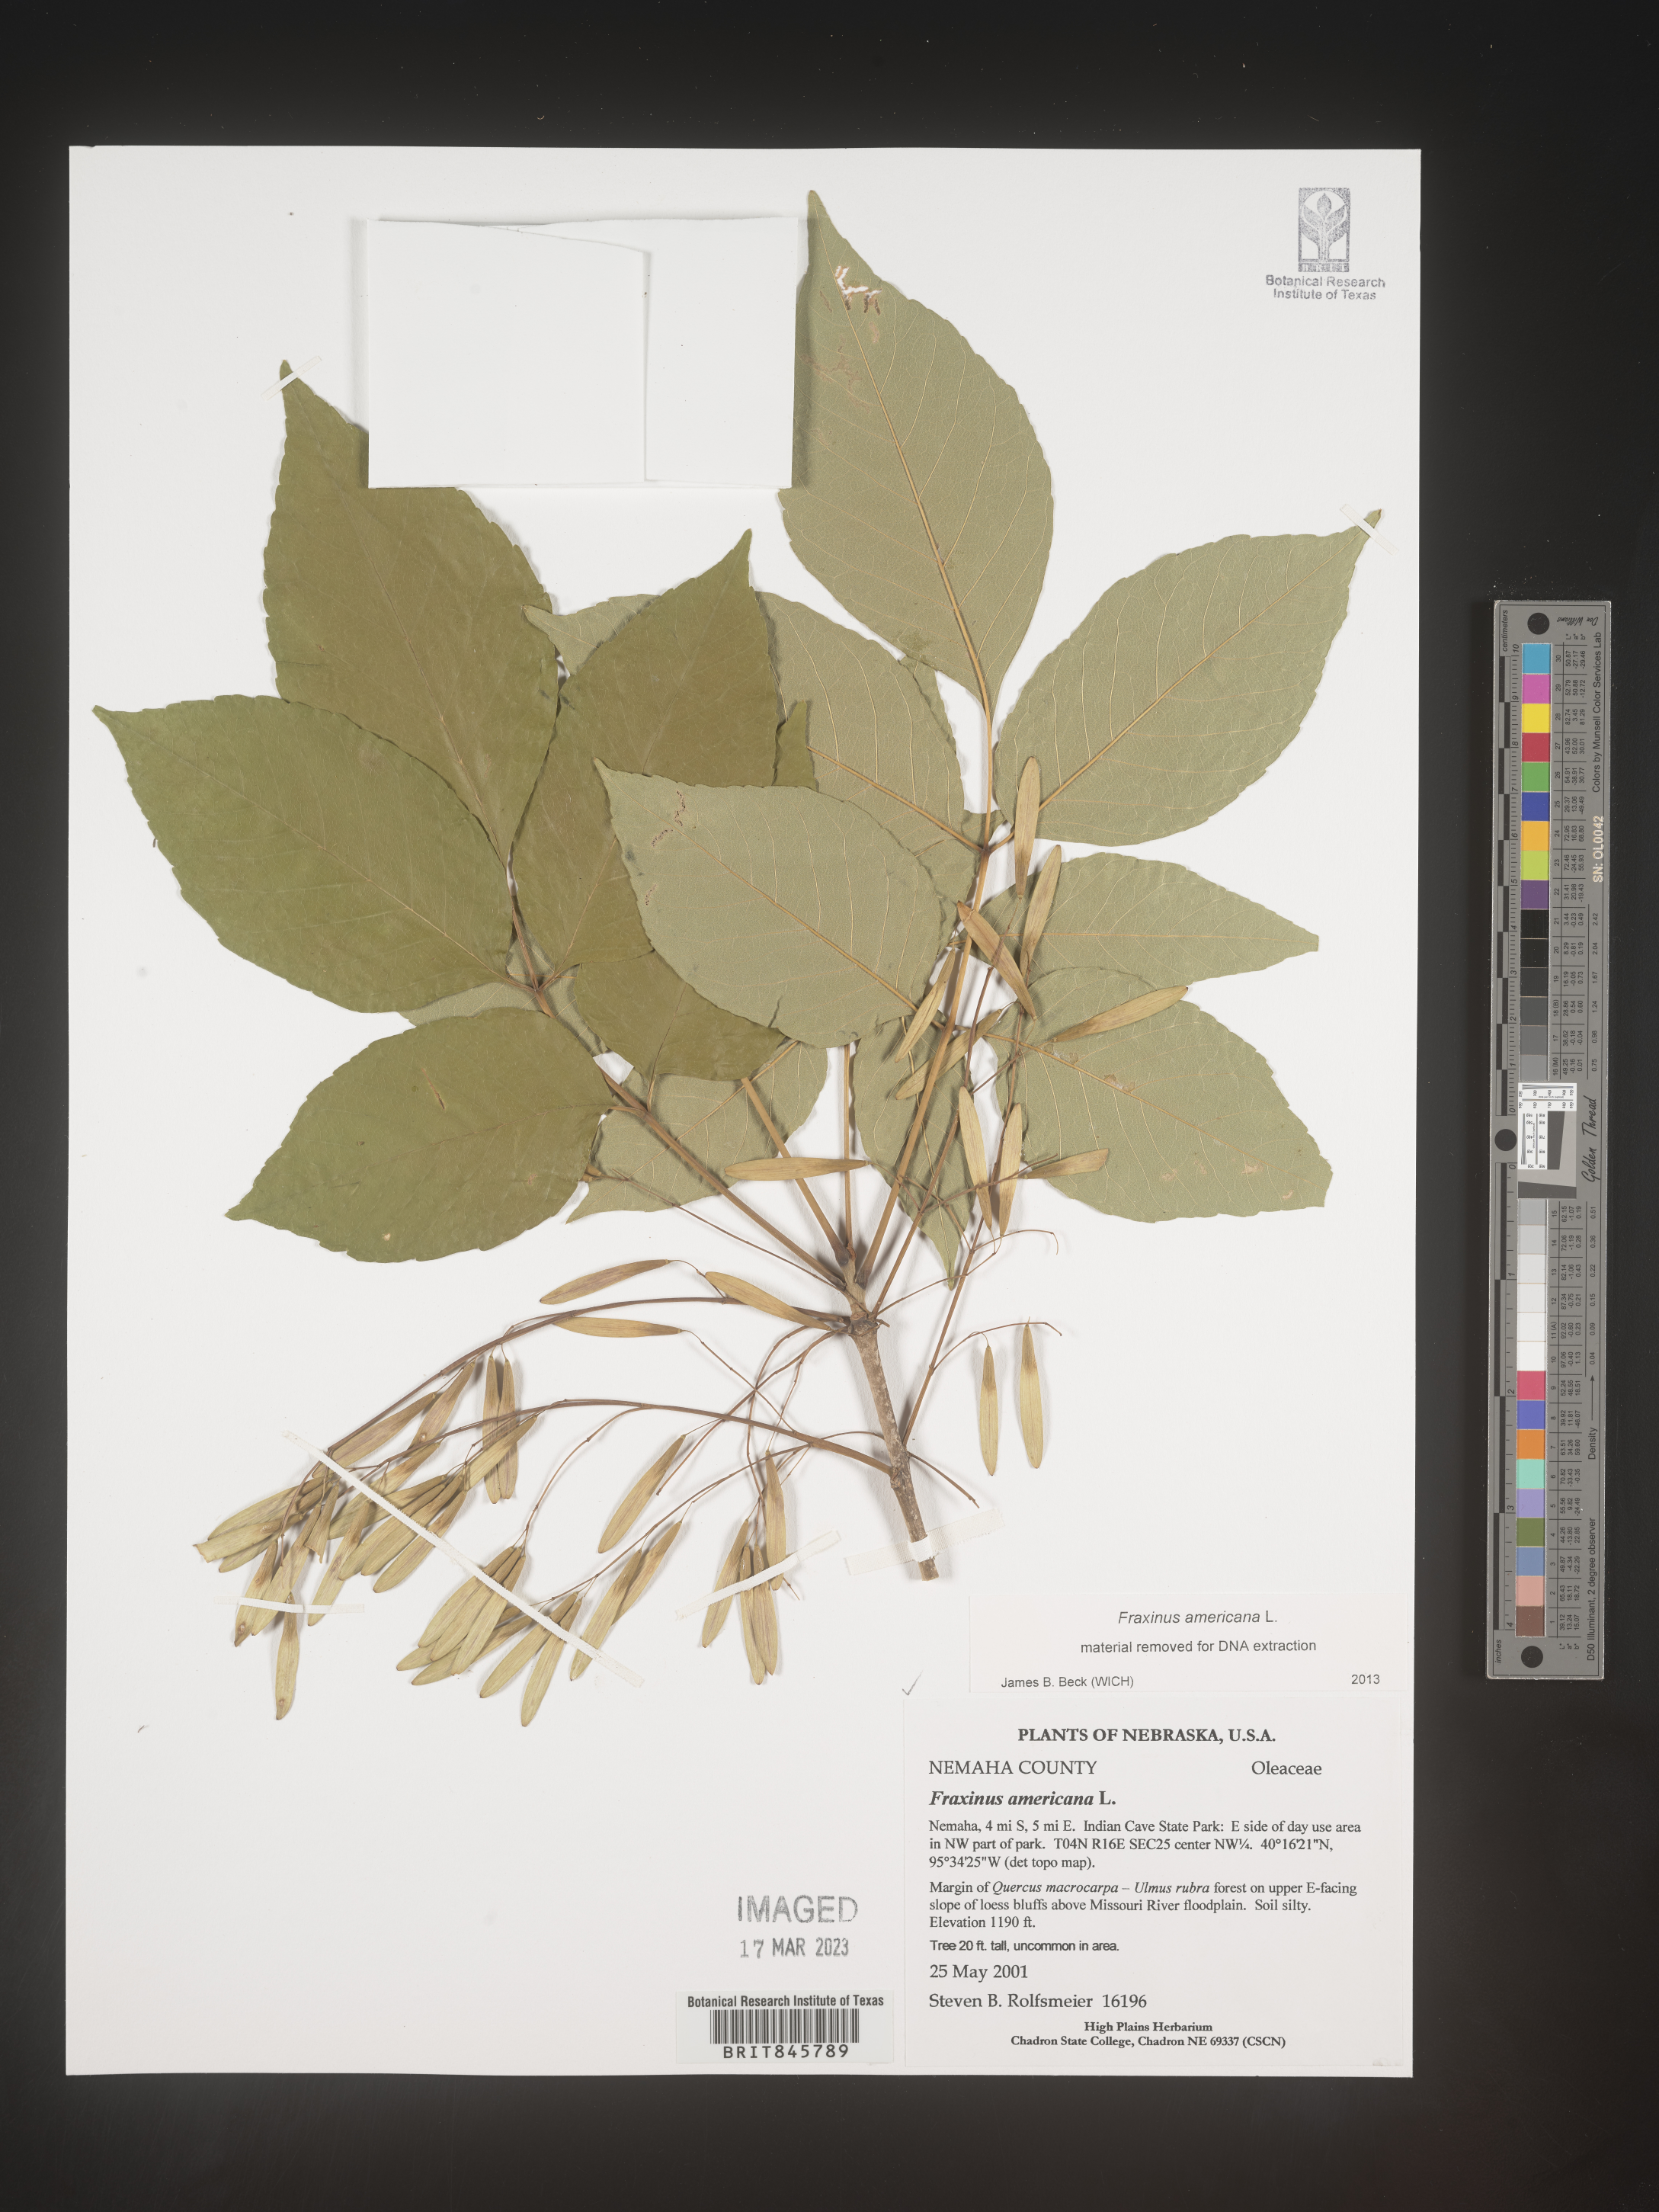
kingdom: Plantae
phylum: Tracheophyta
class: Magnoliopsida
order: Lamiales
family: Oleaceae
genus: Fraxinus
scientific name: Fraxinus americana
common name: White ash
